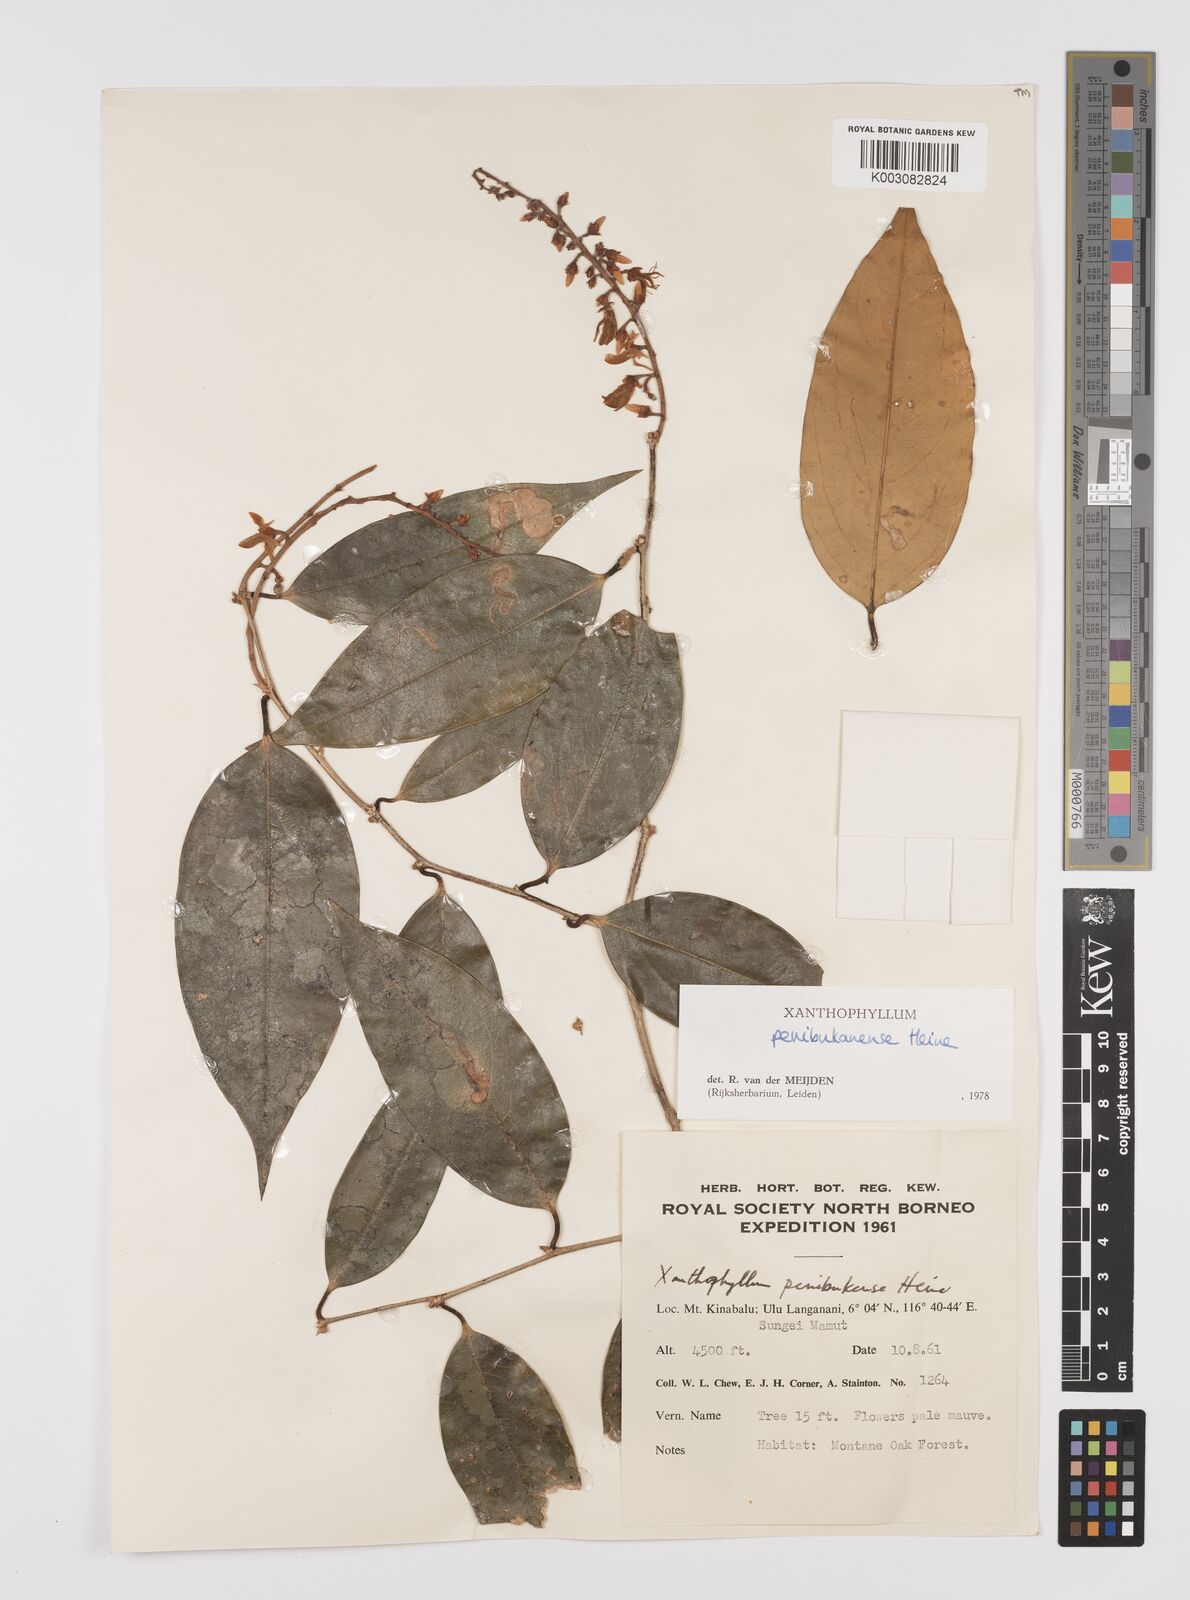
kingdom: Plantae
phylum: Tracheophyta
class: Magnoliopsida
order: Fabales
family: Polygalaceae
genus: Xanthophyllum
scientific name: Xanthophyllum penibukanense
